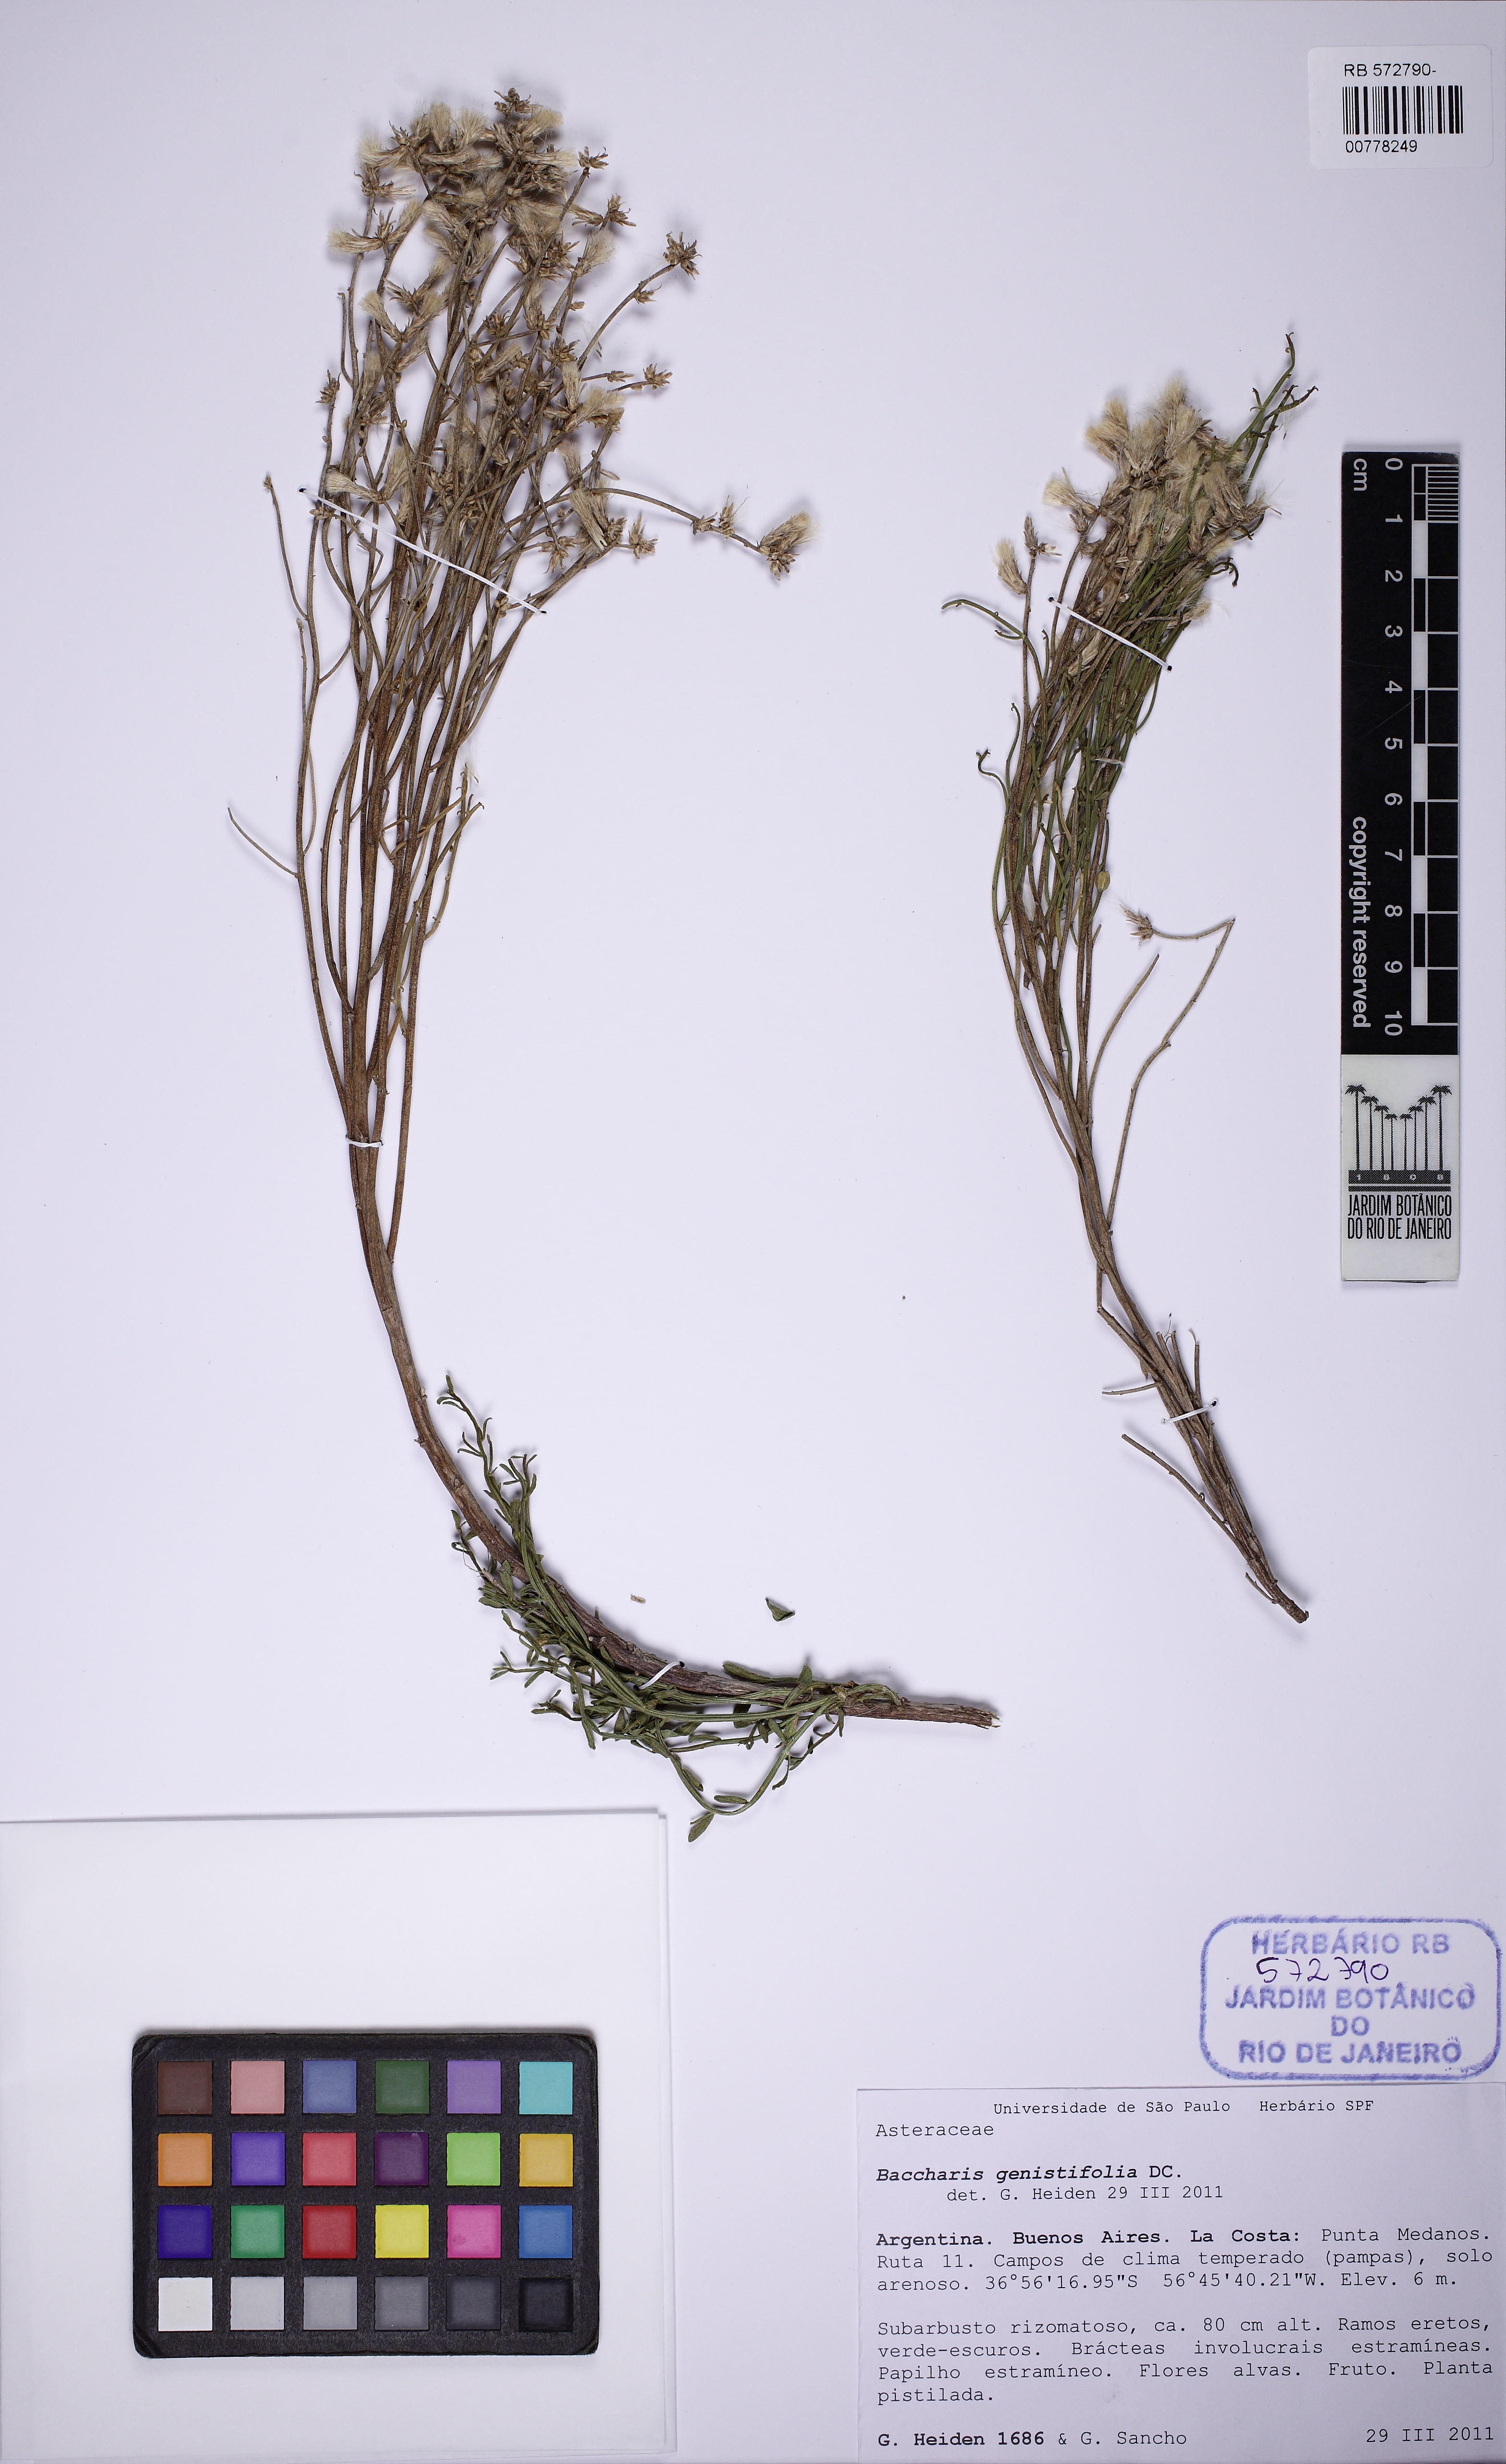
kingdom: Plantae
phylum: Tracheophyta
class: Magnoliopsida
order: Asterales
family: Asteraceae
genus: Baccharis
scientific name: Baccharis genistifolia
